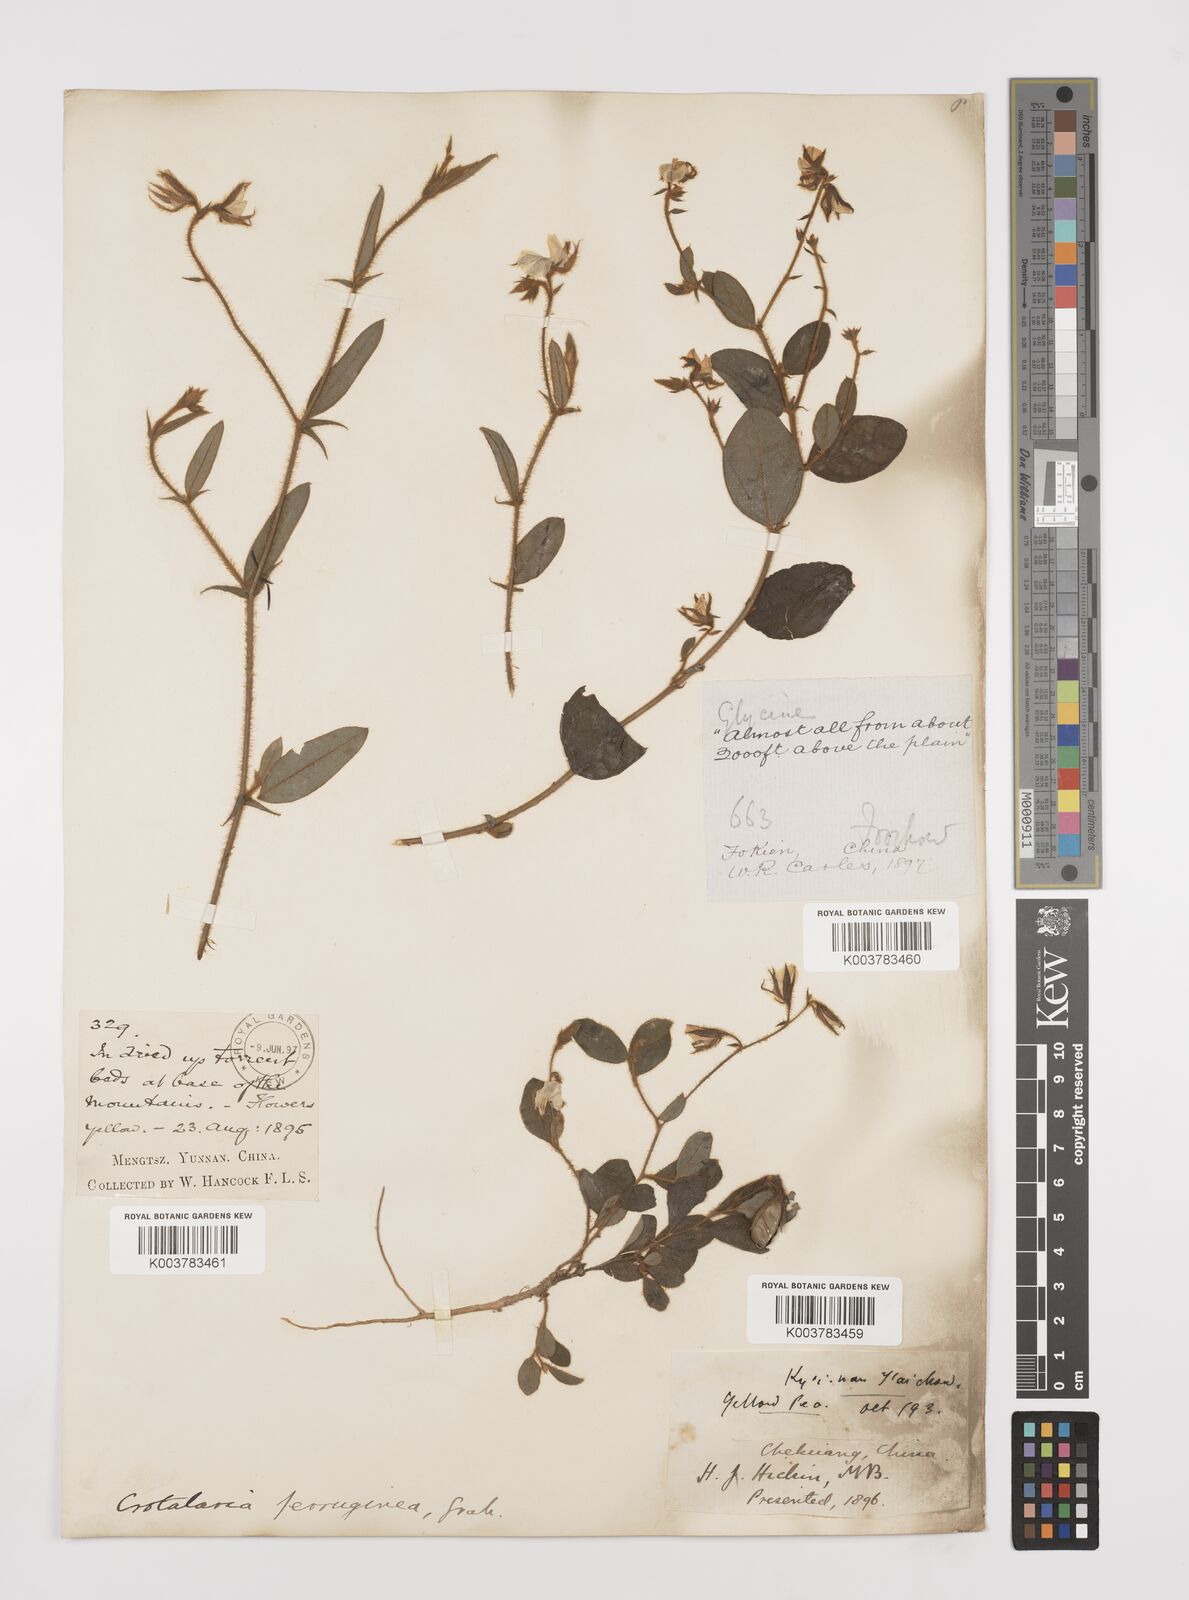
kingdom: Plantae
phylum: Tracheophyta
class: Magnoliopsida
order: Fabales
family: Fabaceae
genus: Crotalaria
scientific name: Crotalaria lejoloba
